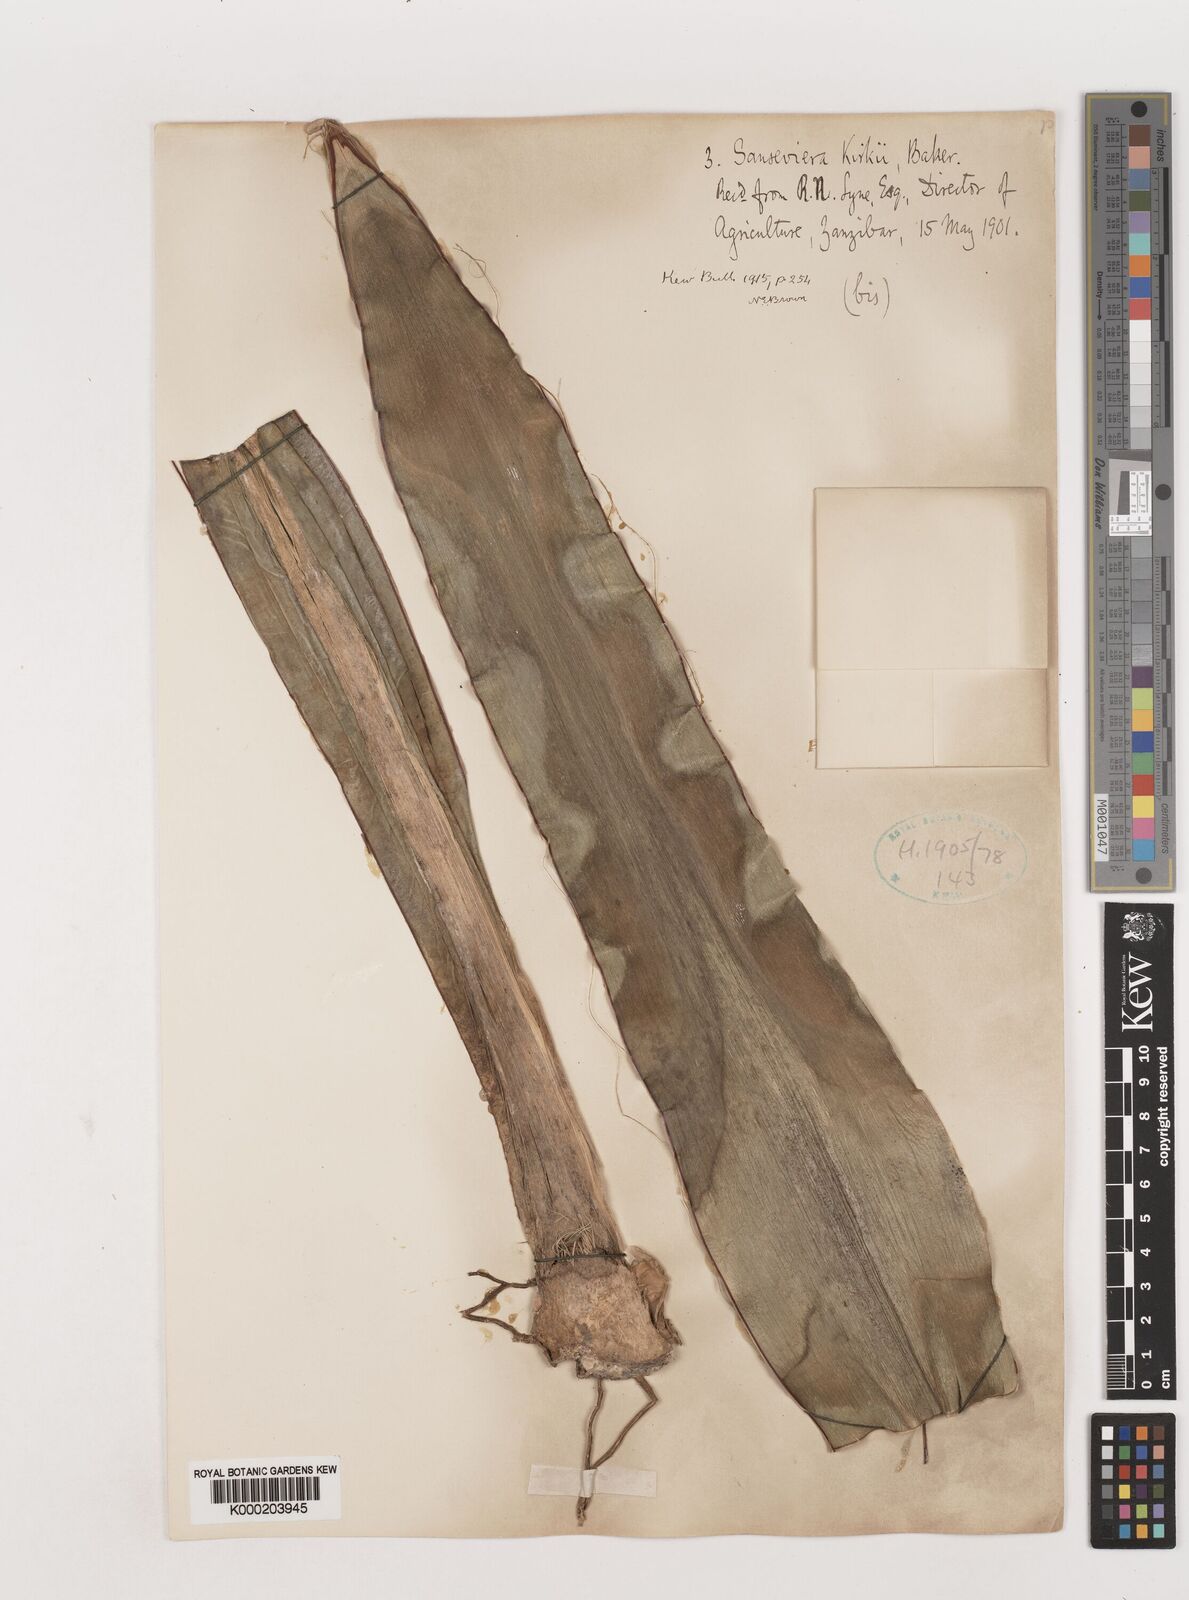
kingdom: Plantae
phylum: Tracheophyta
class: Liliopsida
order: Asparagales
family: Asparagaceae
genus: Dracaena
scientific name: Dracaena pethera
